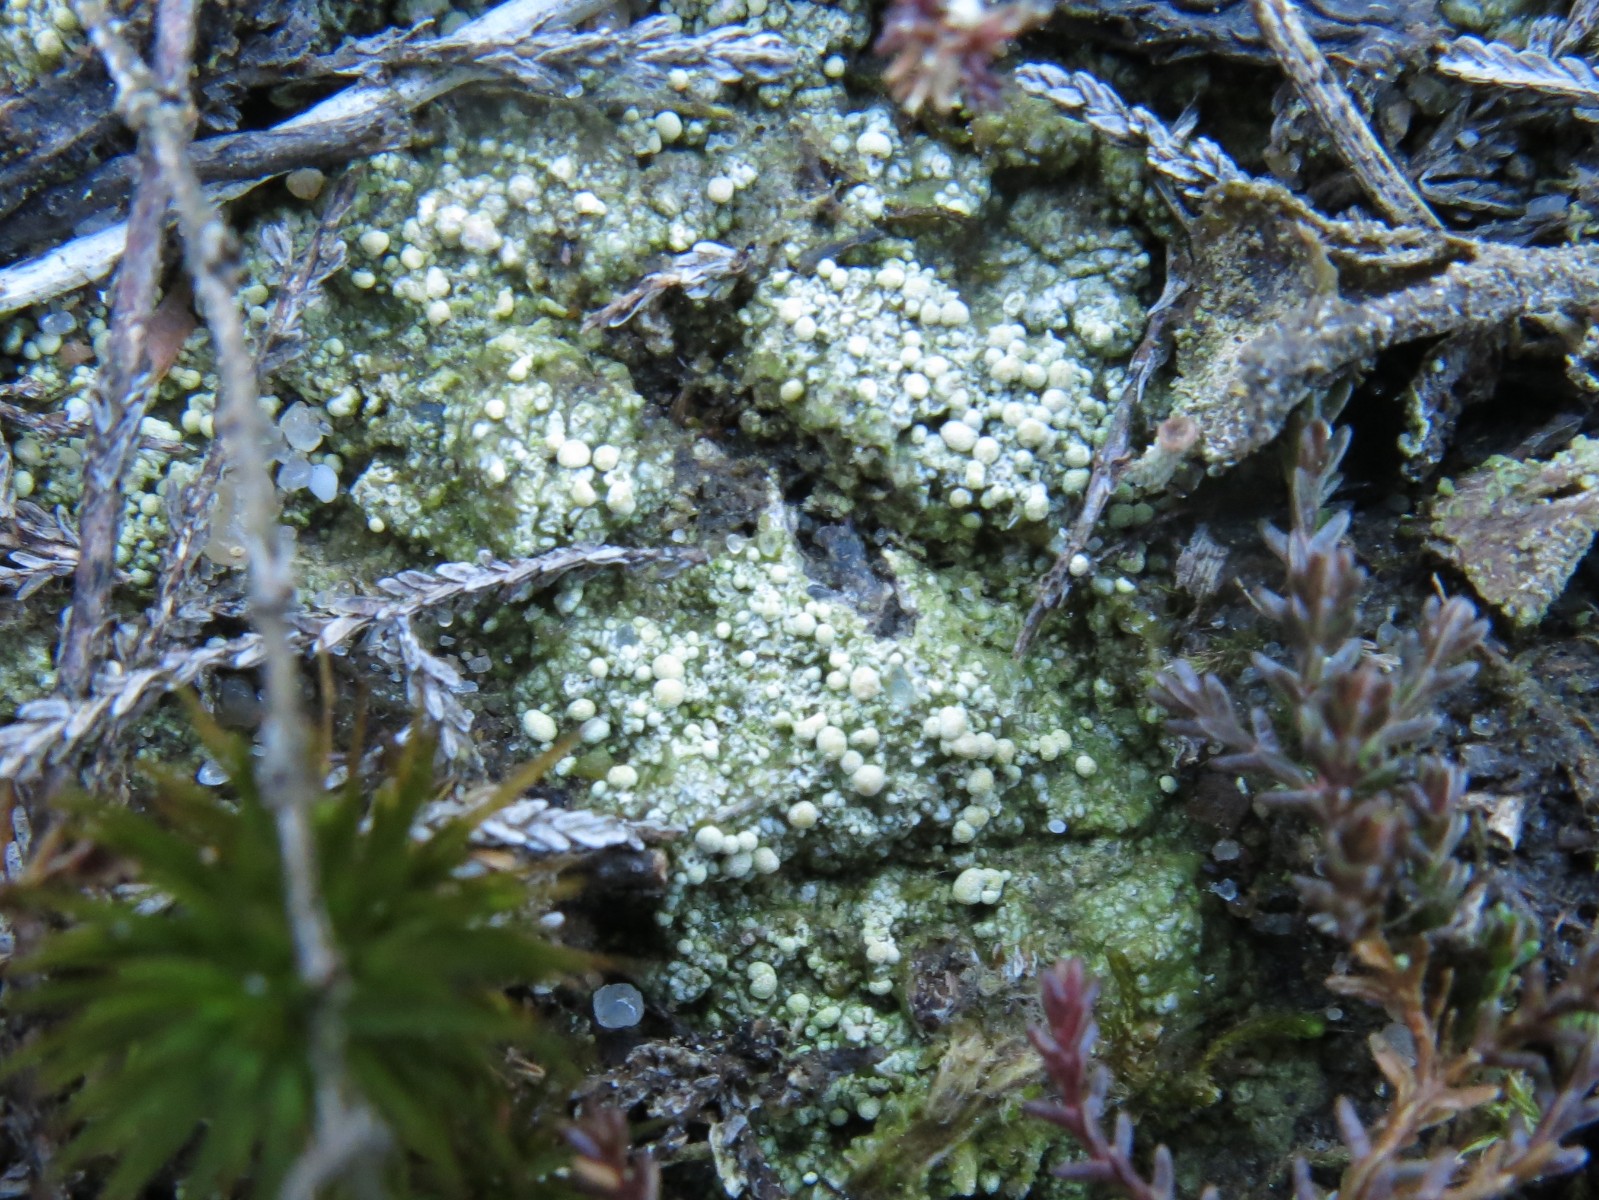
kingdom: Fungi
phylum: Ascomycota
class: Lecanoromycetes
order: Pertusariales
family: Icmadophilaceae
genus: Dibaeis
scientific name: Dibaeis baeomyces
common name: rosenrød stilav
